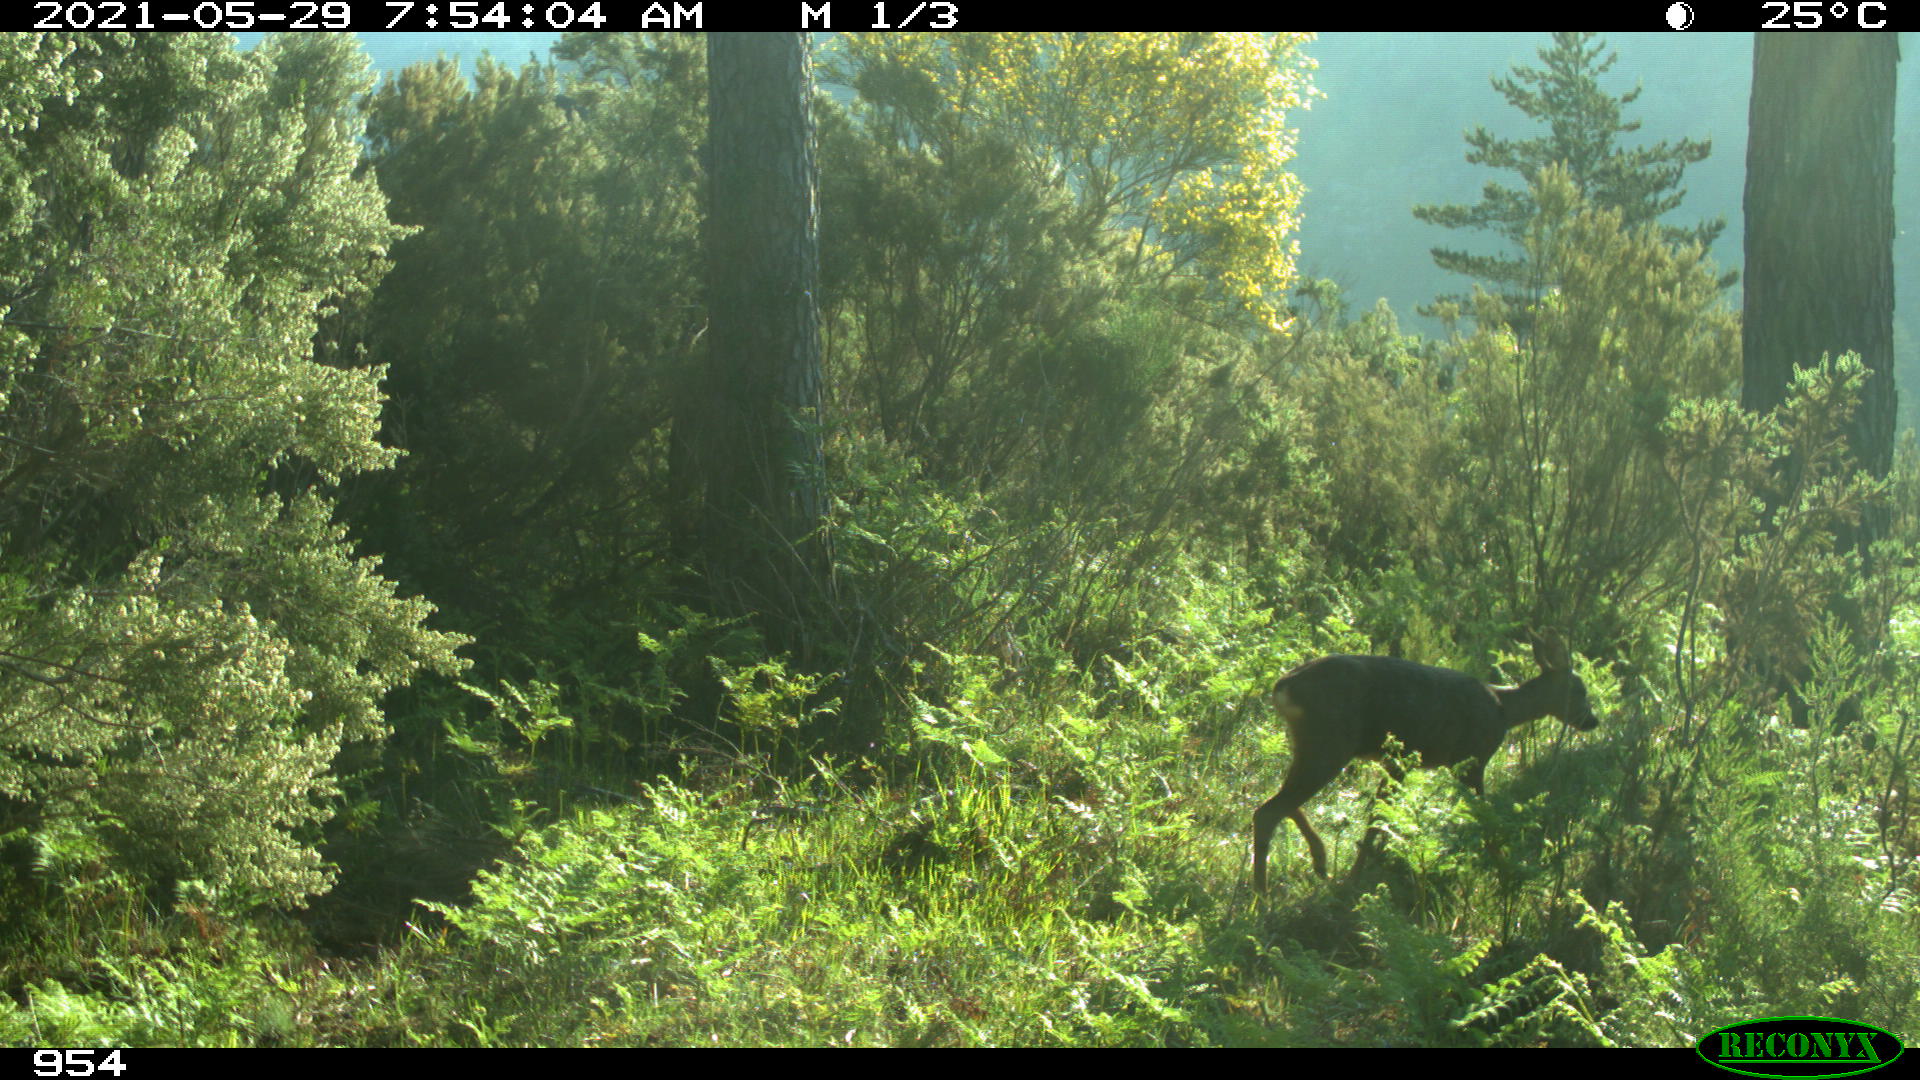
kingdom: Animalia
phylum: Chordata
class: Mammalia
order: Artiodactyla
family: Cervidae
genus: Capreolus
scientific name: Capreolus capreolus
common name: Western roe deer
